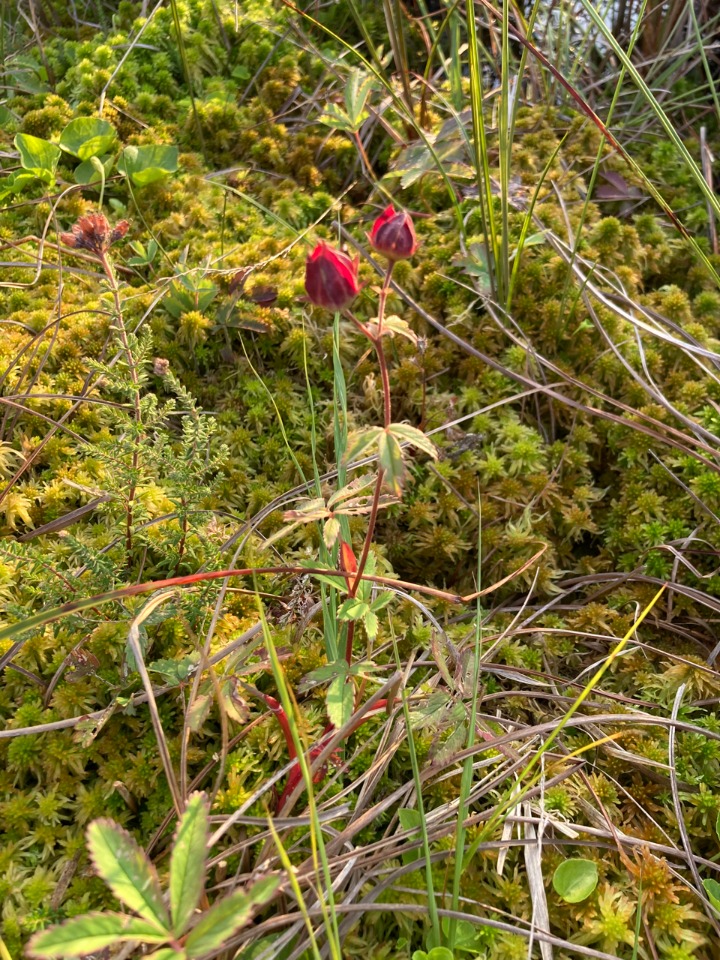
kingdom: Plantae
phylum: Tracheophyta
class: Magnoliopsida
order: Rosales
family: Rosaceae
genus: Comarum
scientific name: Comarum palustre
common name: Kragefod
